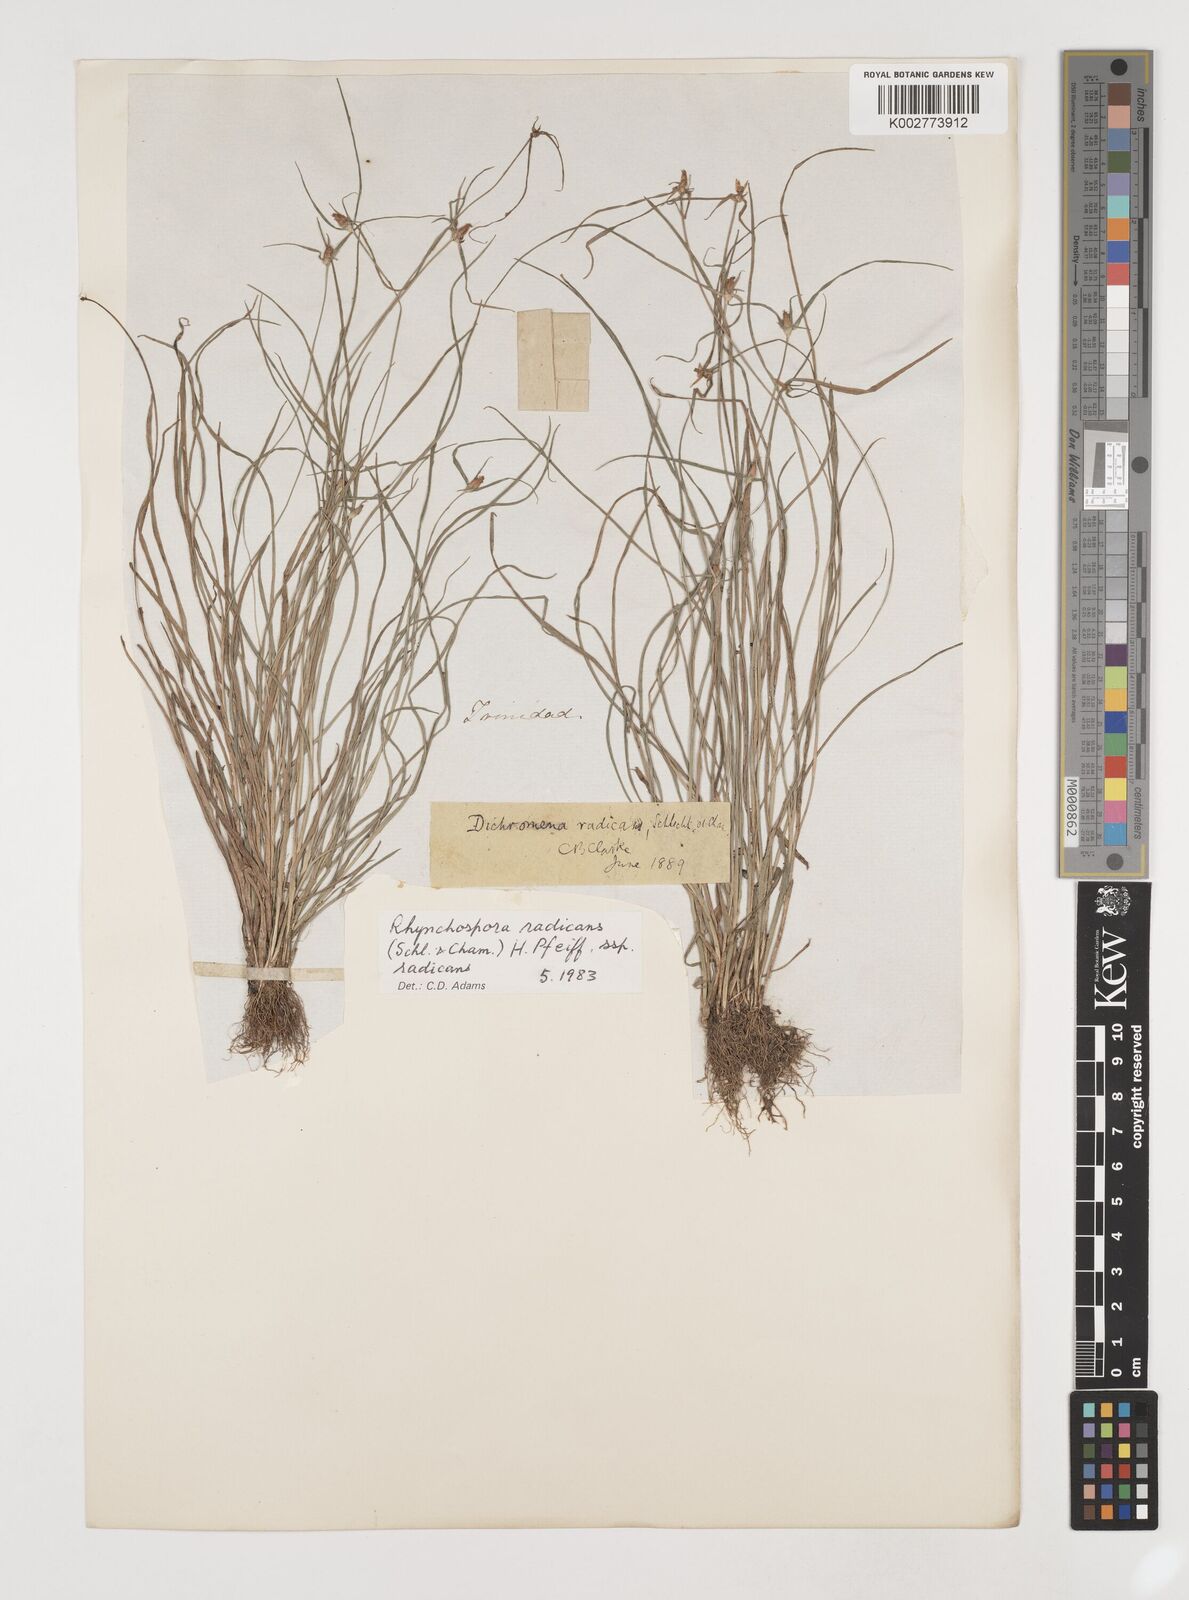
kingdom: Plantae
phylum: Tracheophyta
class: Liliopsida
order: Poales
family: Cyperaceae
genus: Rhynchospora
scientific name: Rhynchospora radicans
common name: Tropical whitetop
